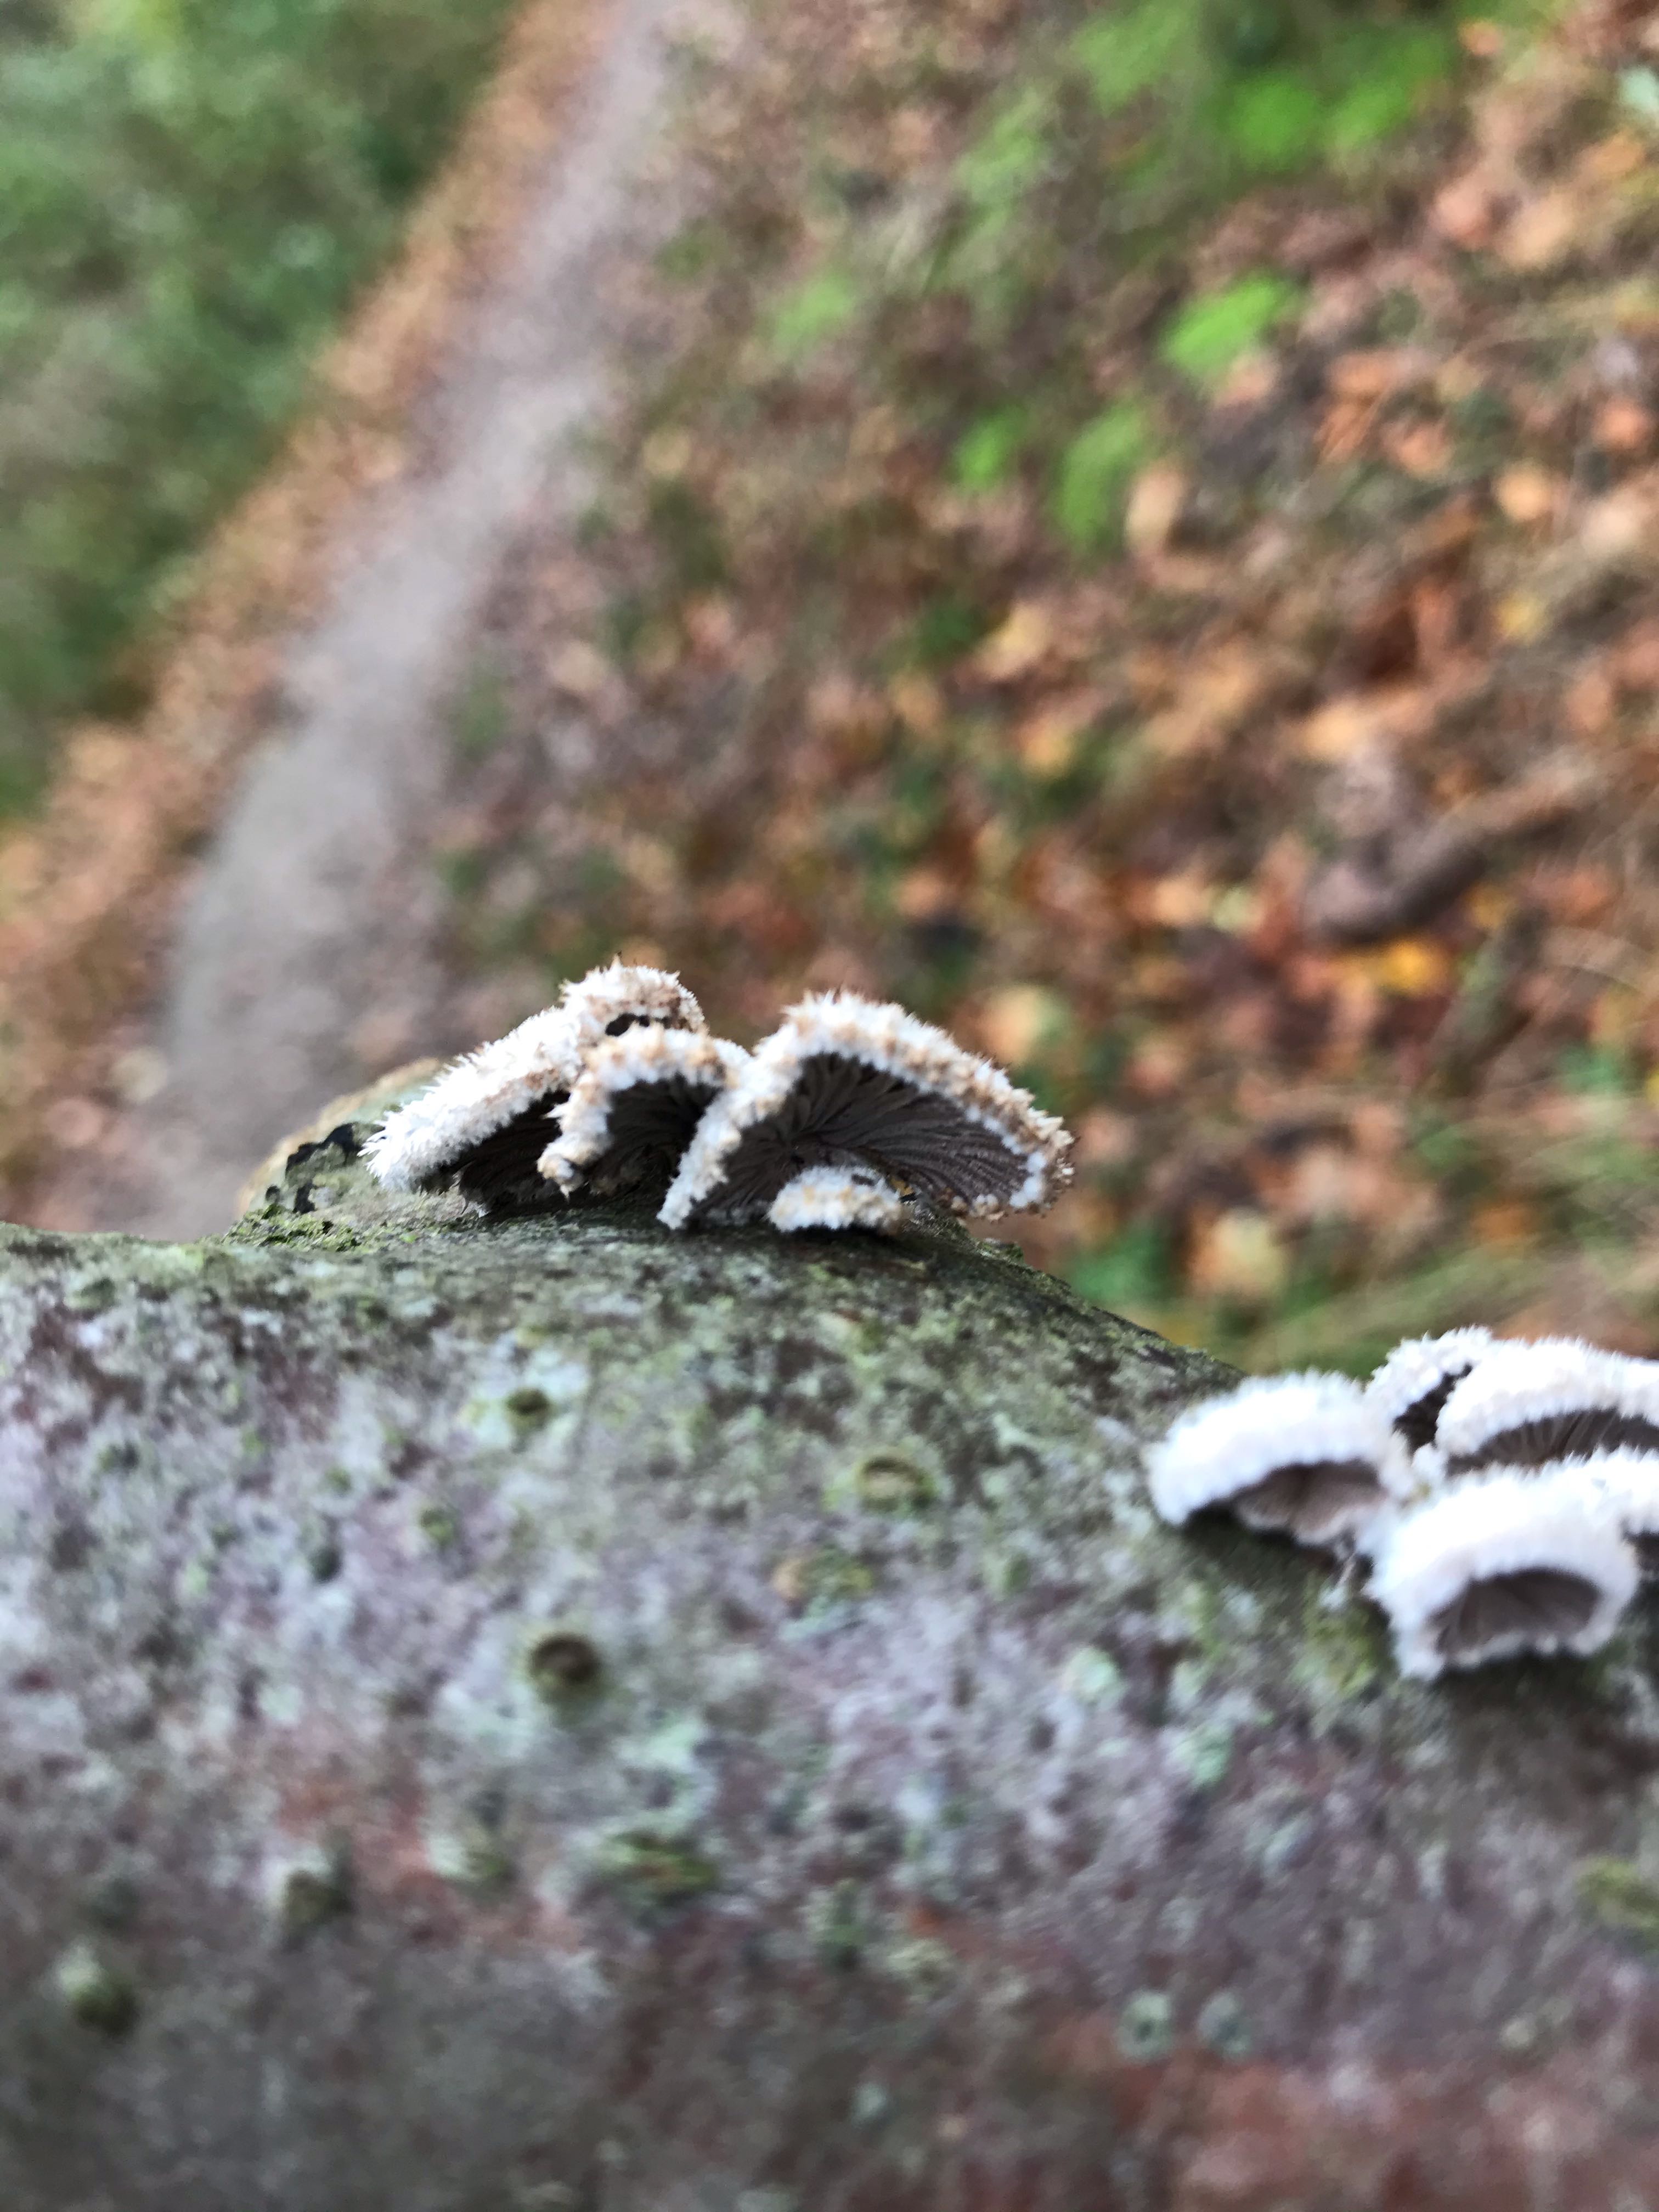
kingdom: Fungi
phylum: Basidiomycota
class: Agaricomycetes
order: Agaricales
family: Schizophyllaceae
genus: Schizophyllum
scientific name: Schizophyllum commune
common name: kløvblad
